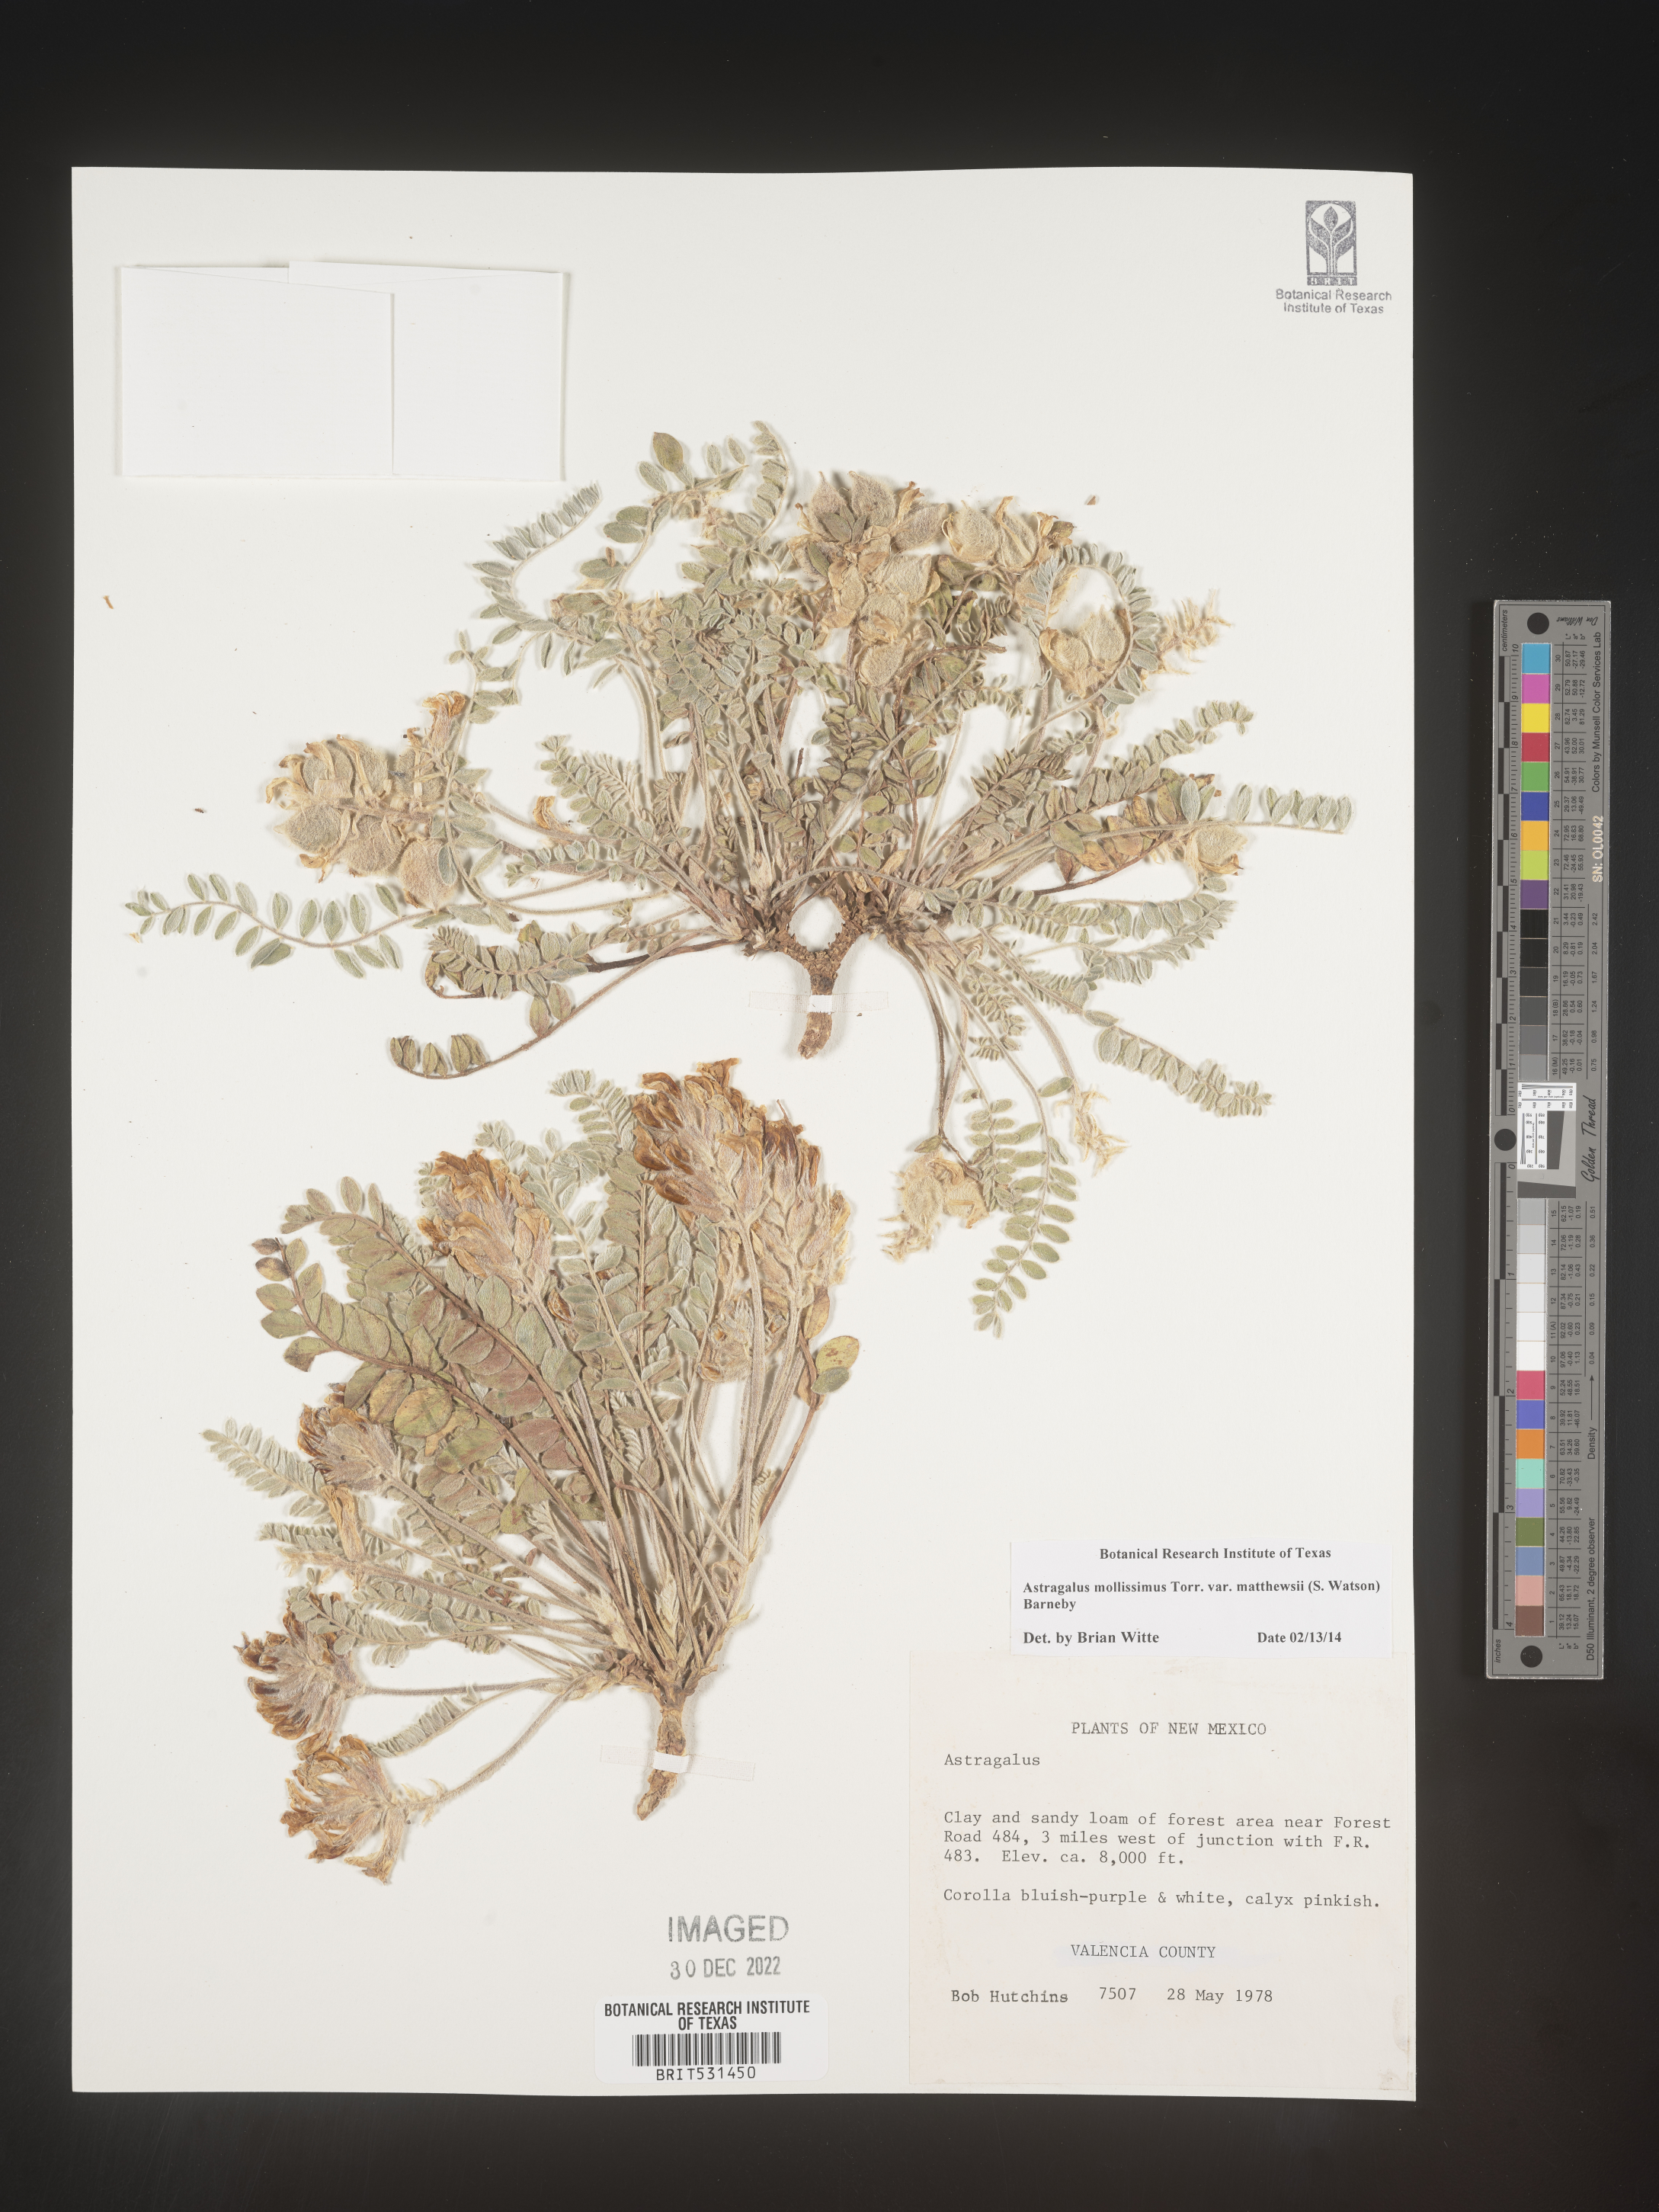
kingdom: Plantae
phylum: Tracheophyta
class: Magnoliopsida
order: Fabales
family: Fabaceae
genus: Astragalus
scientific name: Astragalus
